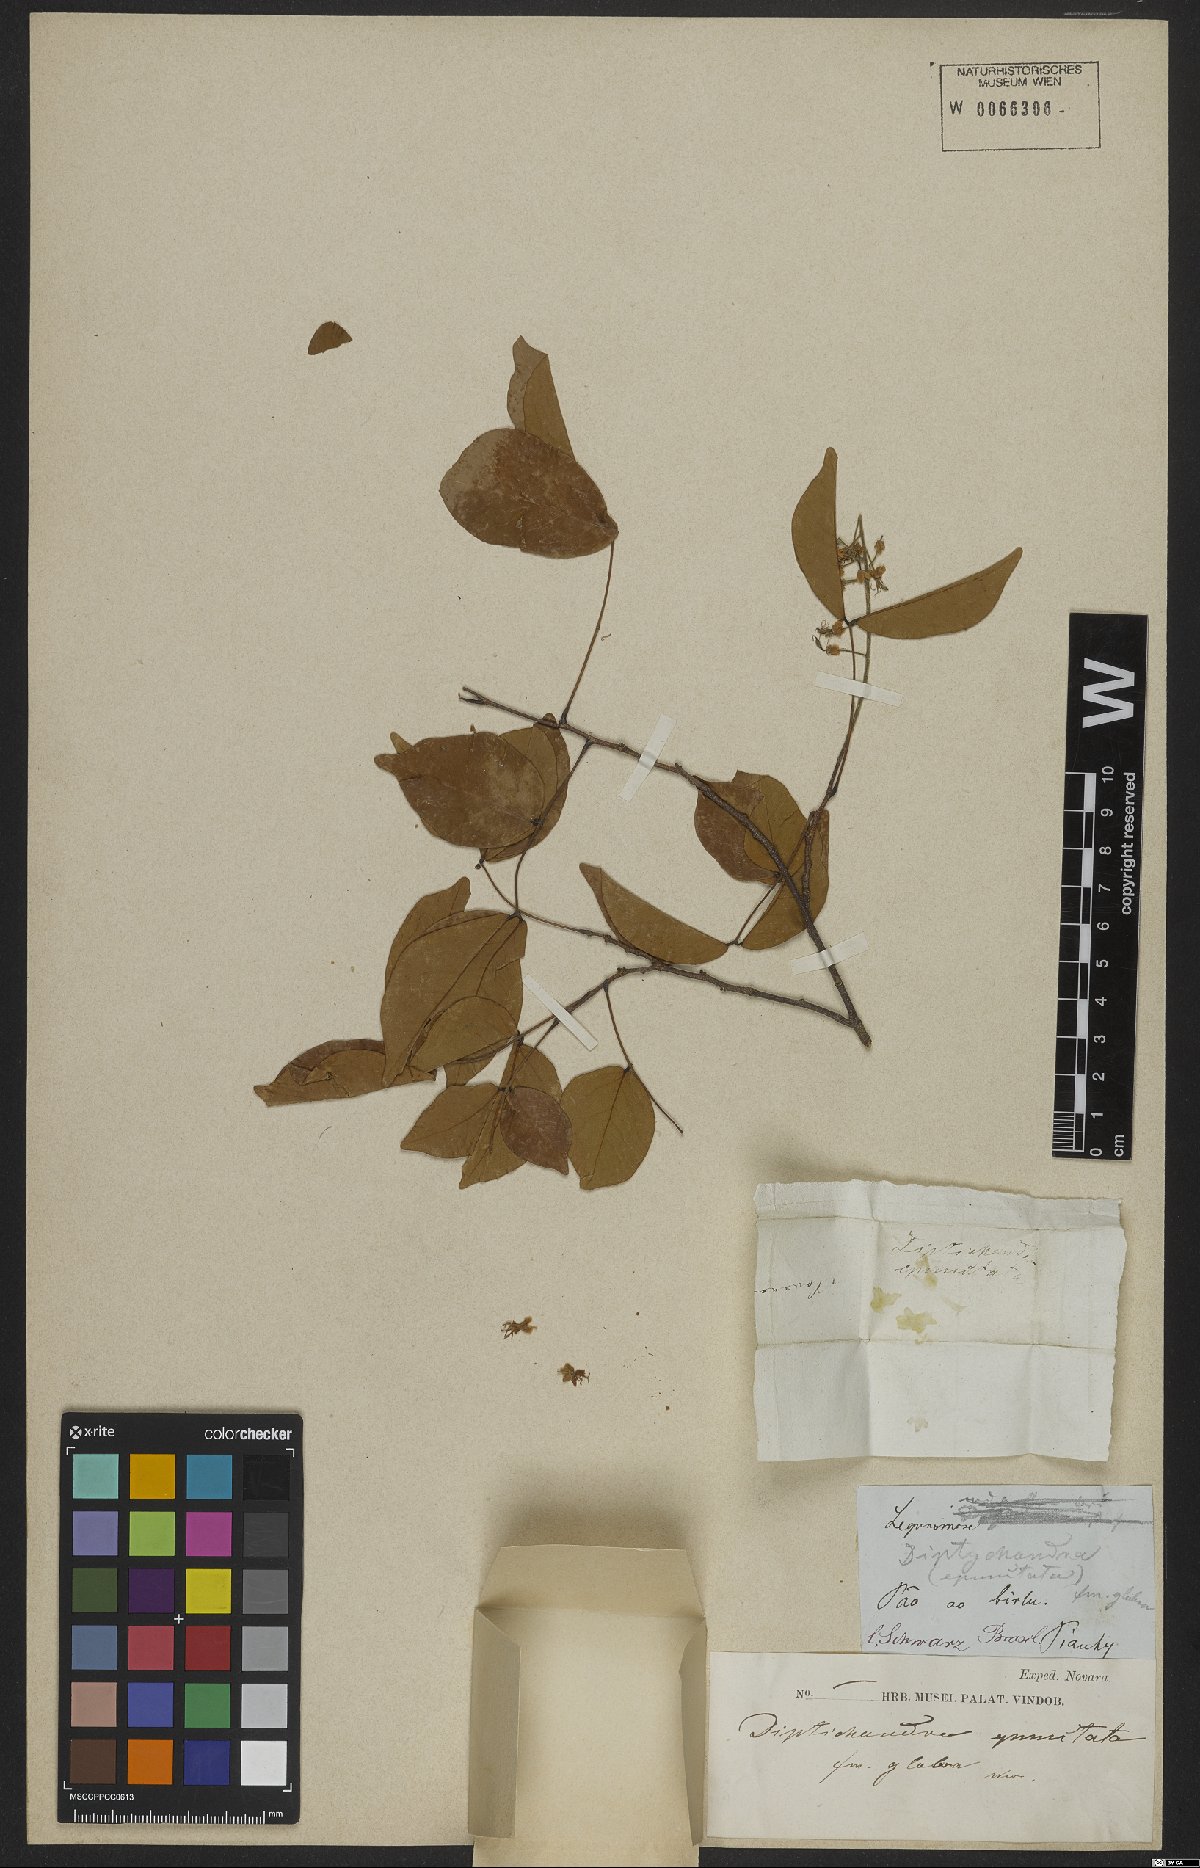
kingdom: Plantae
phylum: Tracheophyta
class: Magnoliopsida
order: Fabales
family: Fabaceae
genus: Diptychandra
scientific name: Diptychandra aurantiaca
